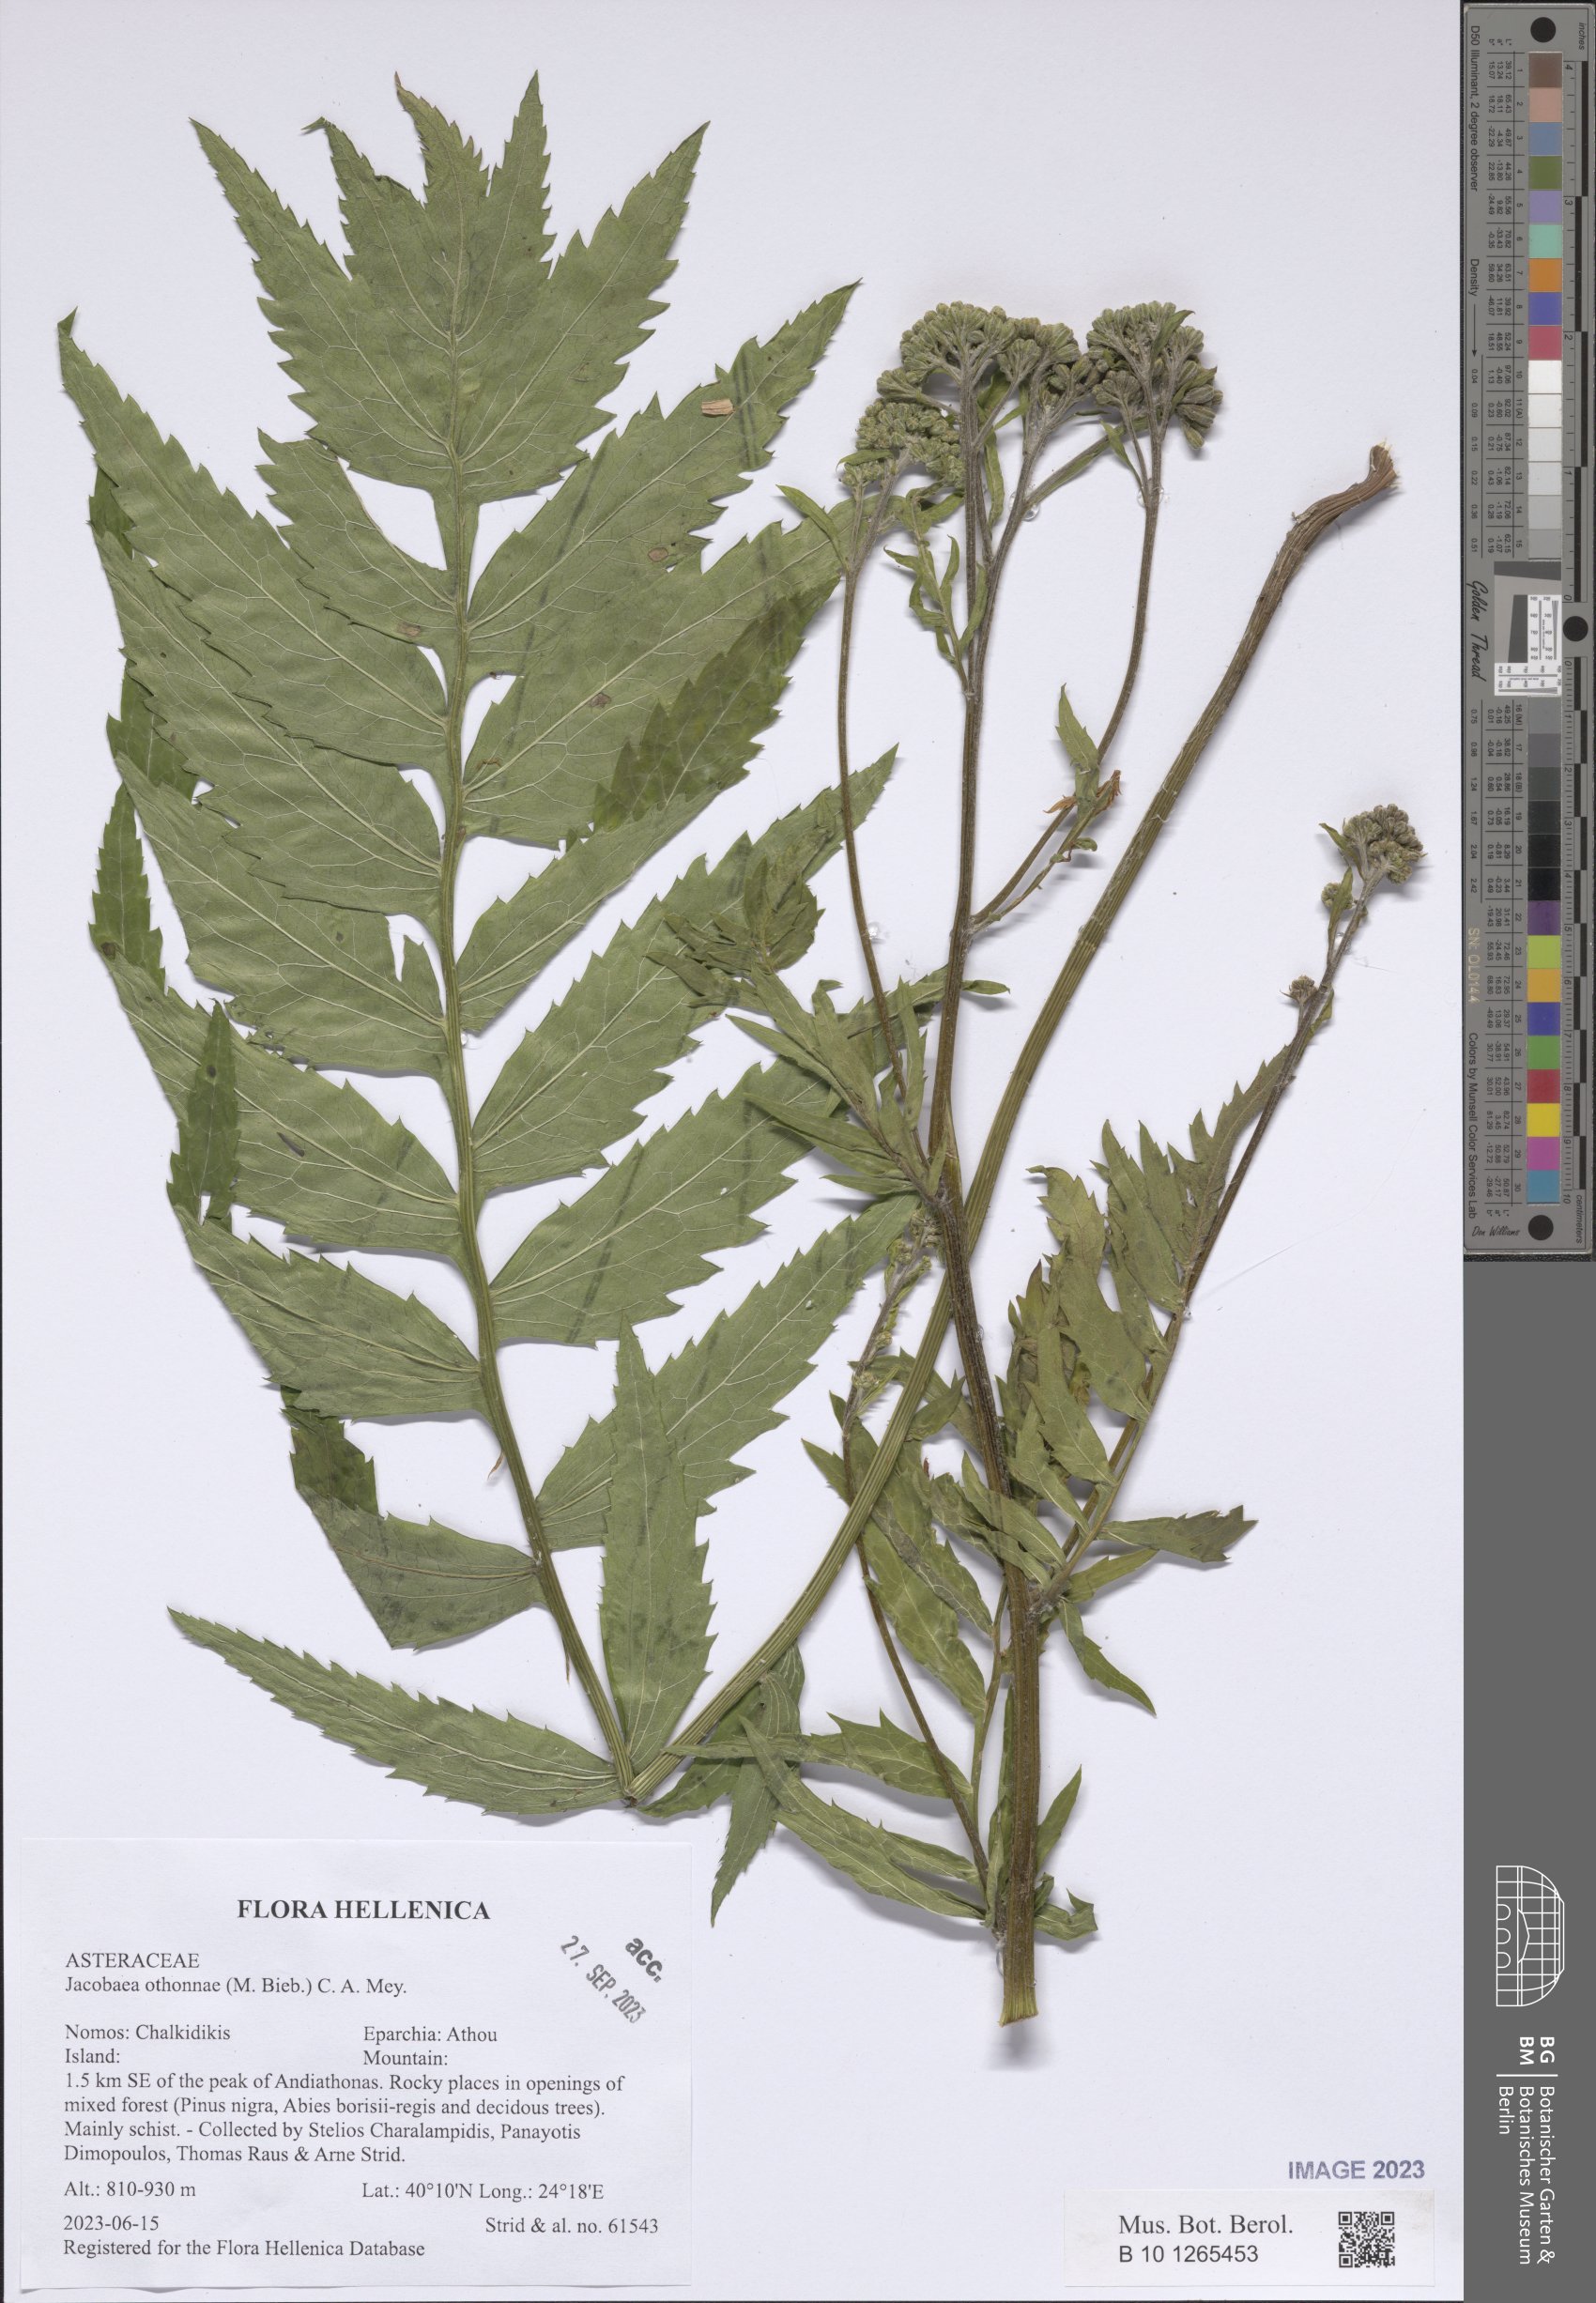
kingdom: Plantae
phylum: Tracheophyta
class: Magnoliopsida
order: Asterales
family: Asteraceae
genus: Jacobaea
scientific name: Jacobaea othonnae
